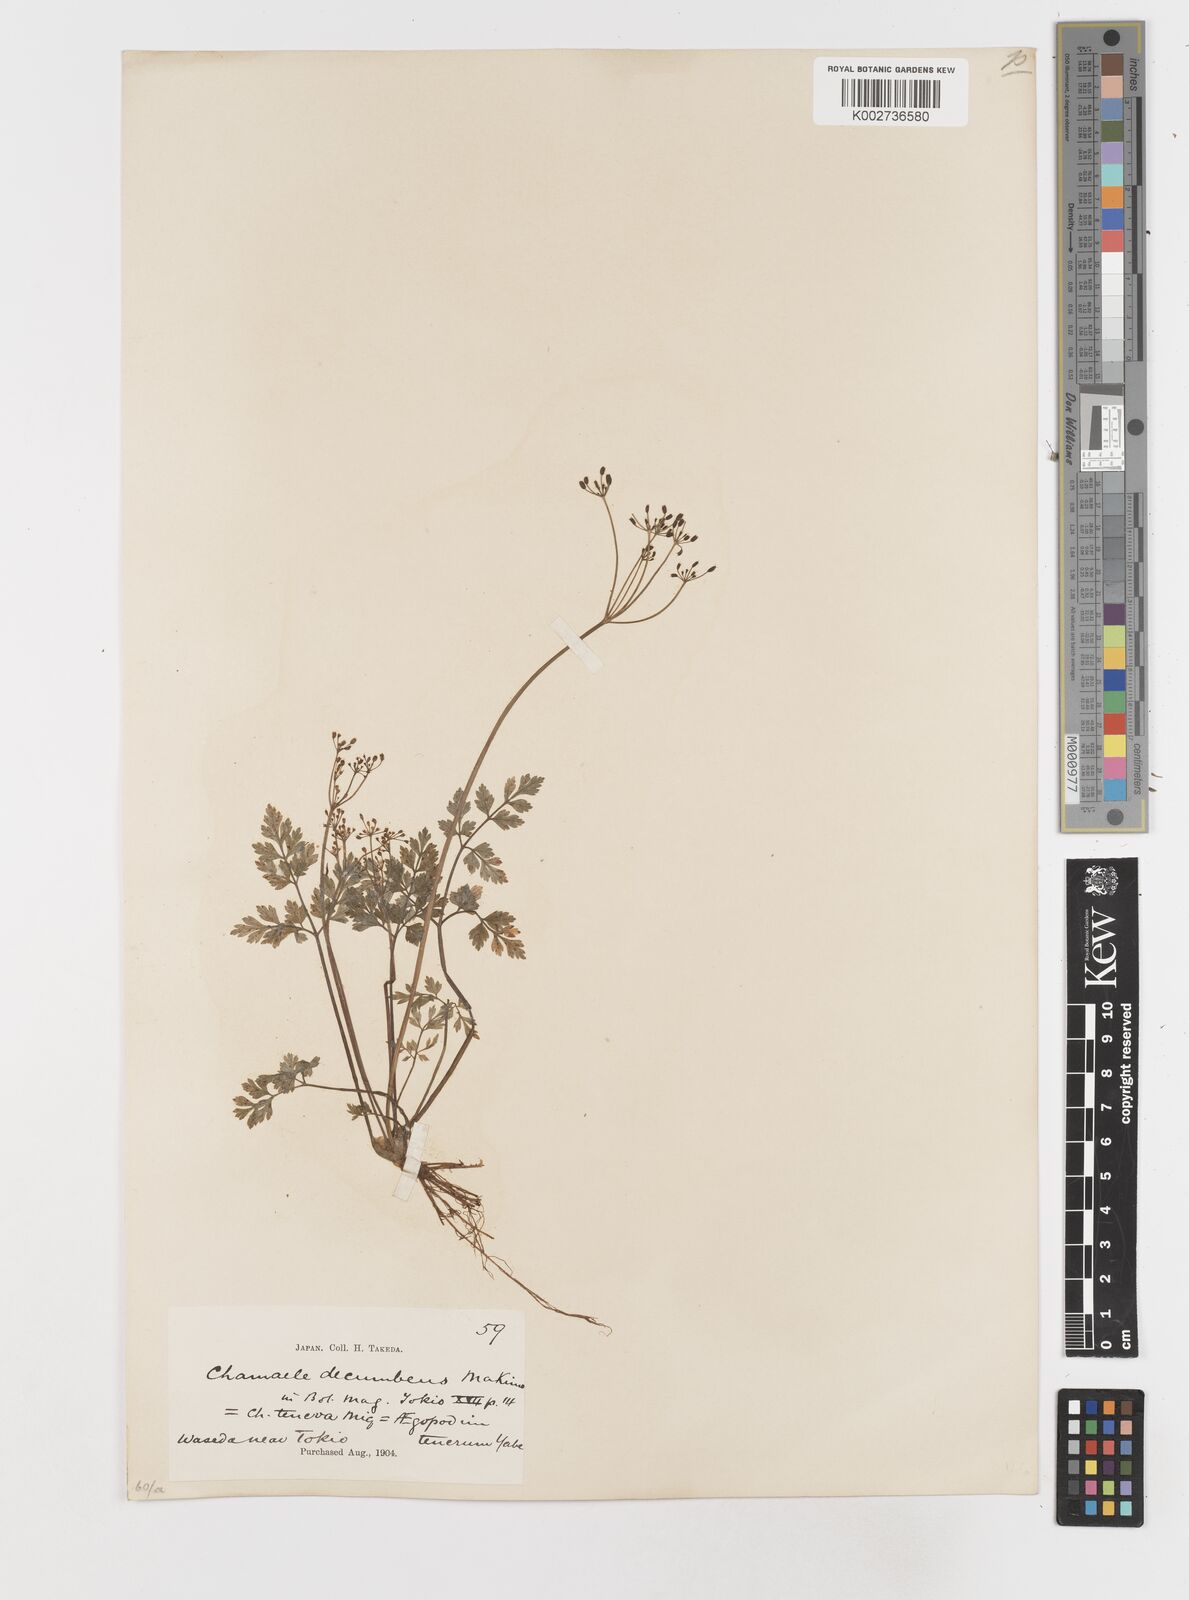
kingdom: Plantae
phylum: Tracheophyta
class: Magnoliopsida
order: Apiales
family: Apiaceae
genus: Aegopodium
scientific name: Aegopodium decumbens
